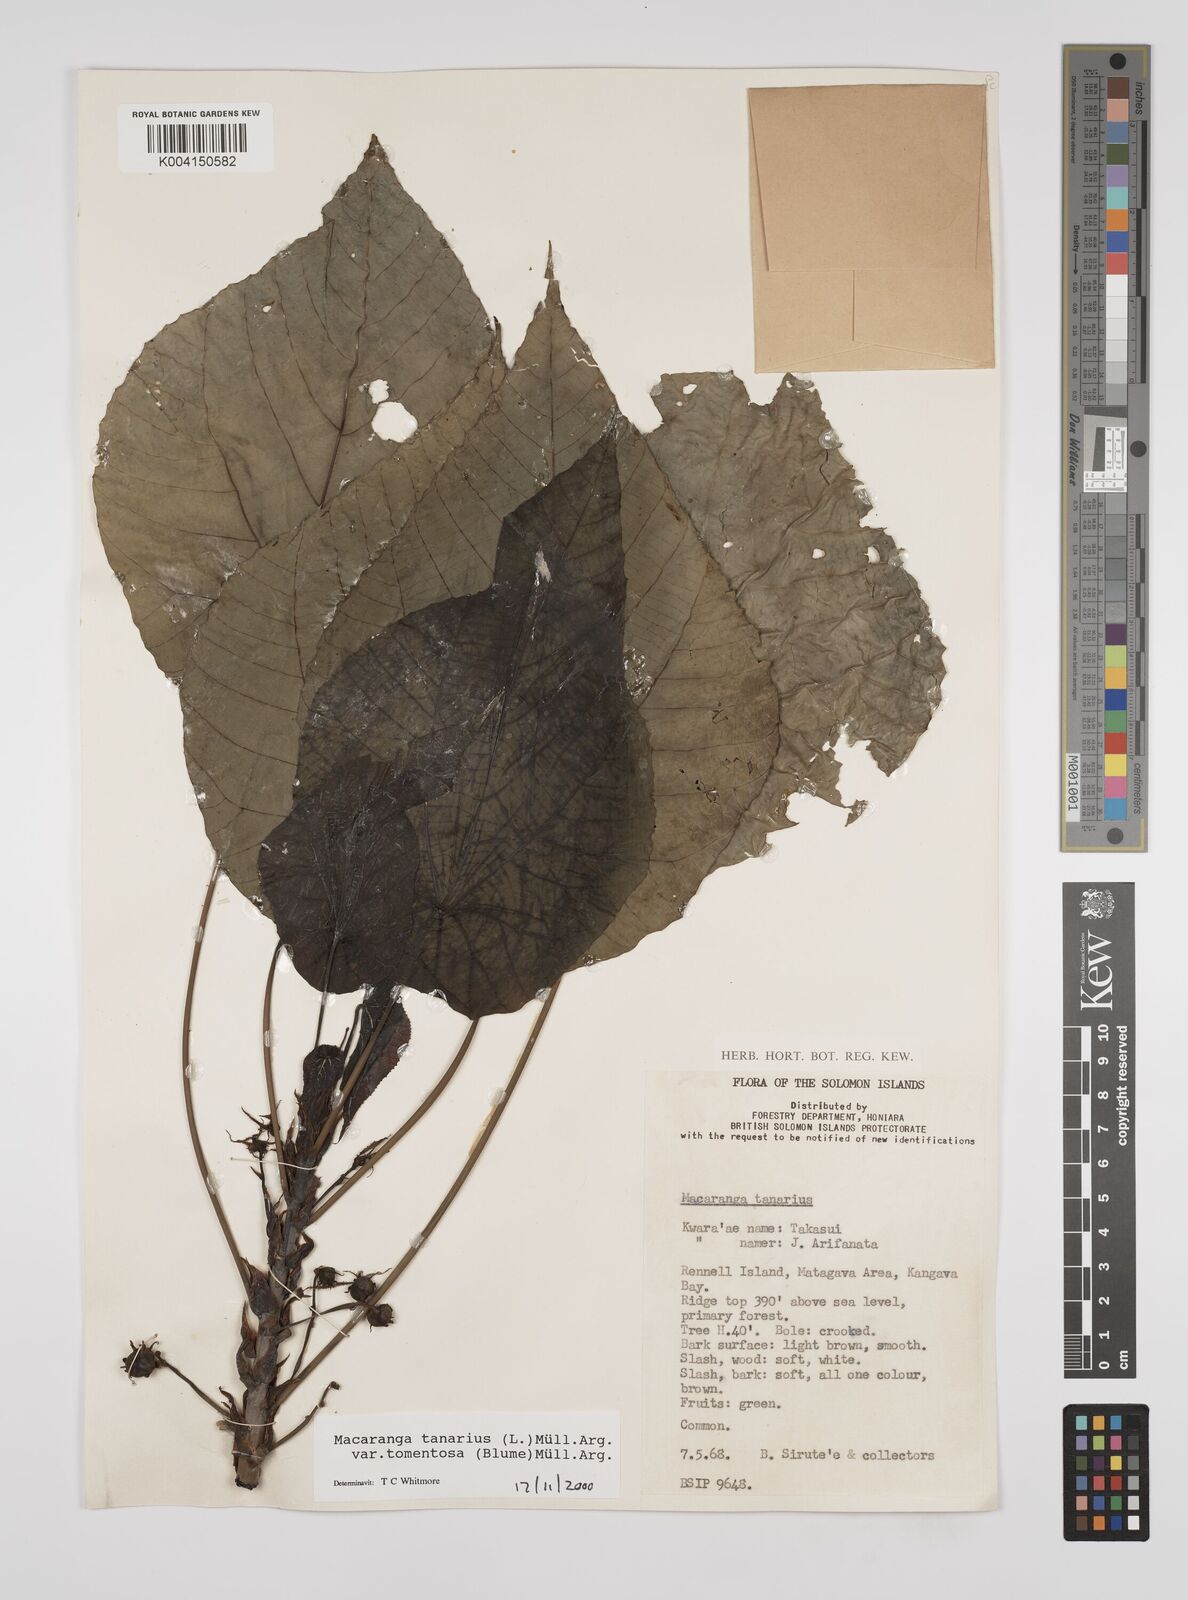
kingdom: Plantae
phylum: Tracheophyta
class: Magnoliopsida
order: Malpighiales
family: Euphorbiaceae
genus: Macaranga
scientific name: Macaranga tanarius
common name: Parasol leaf tree
